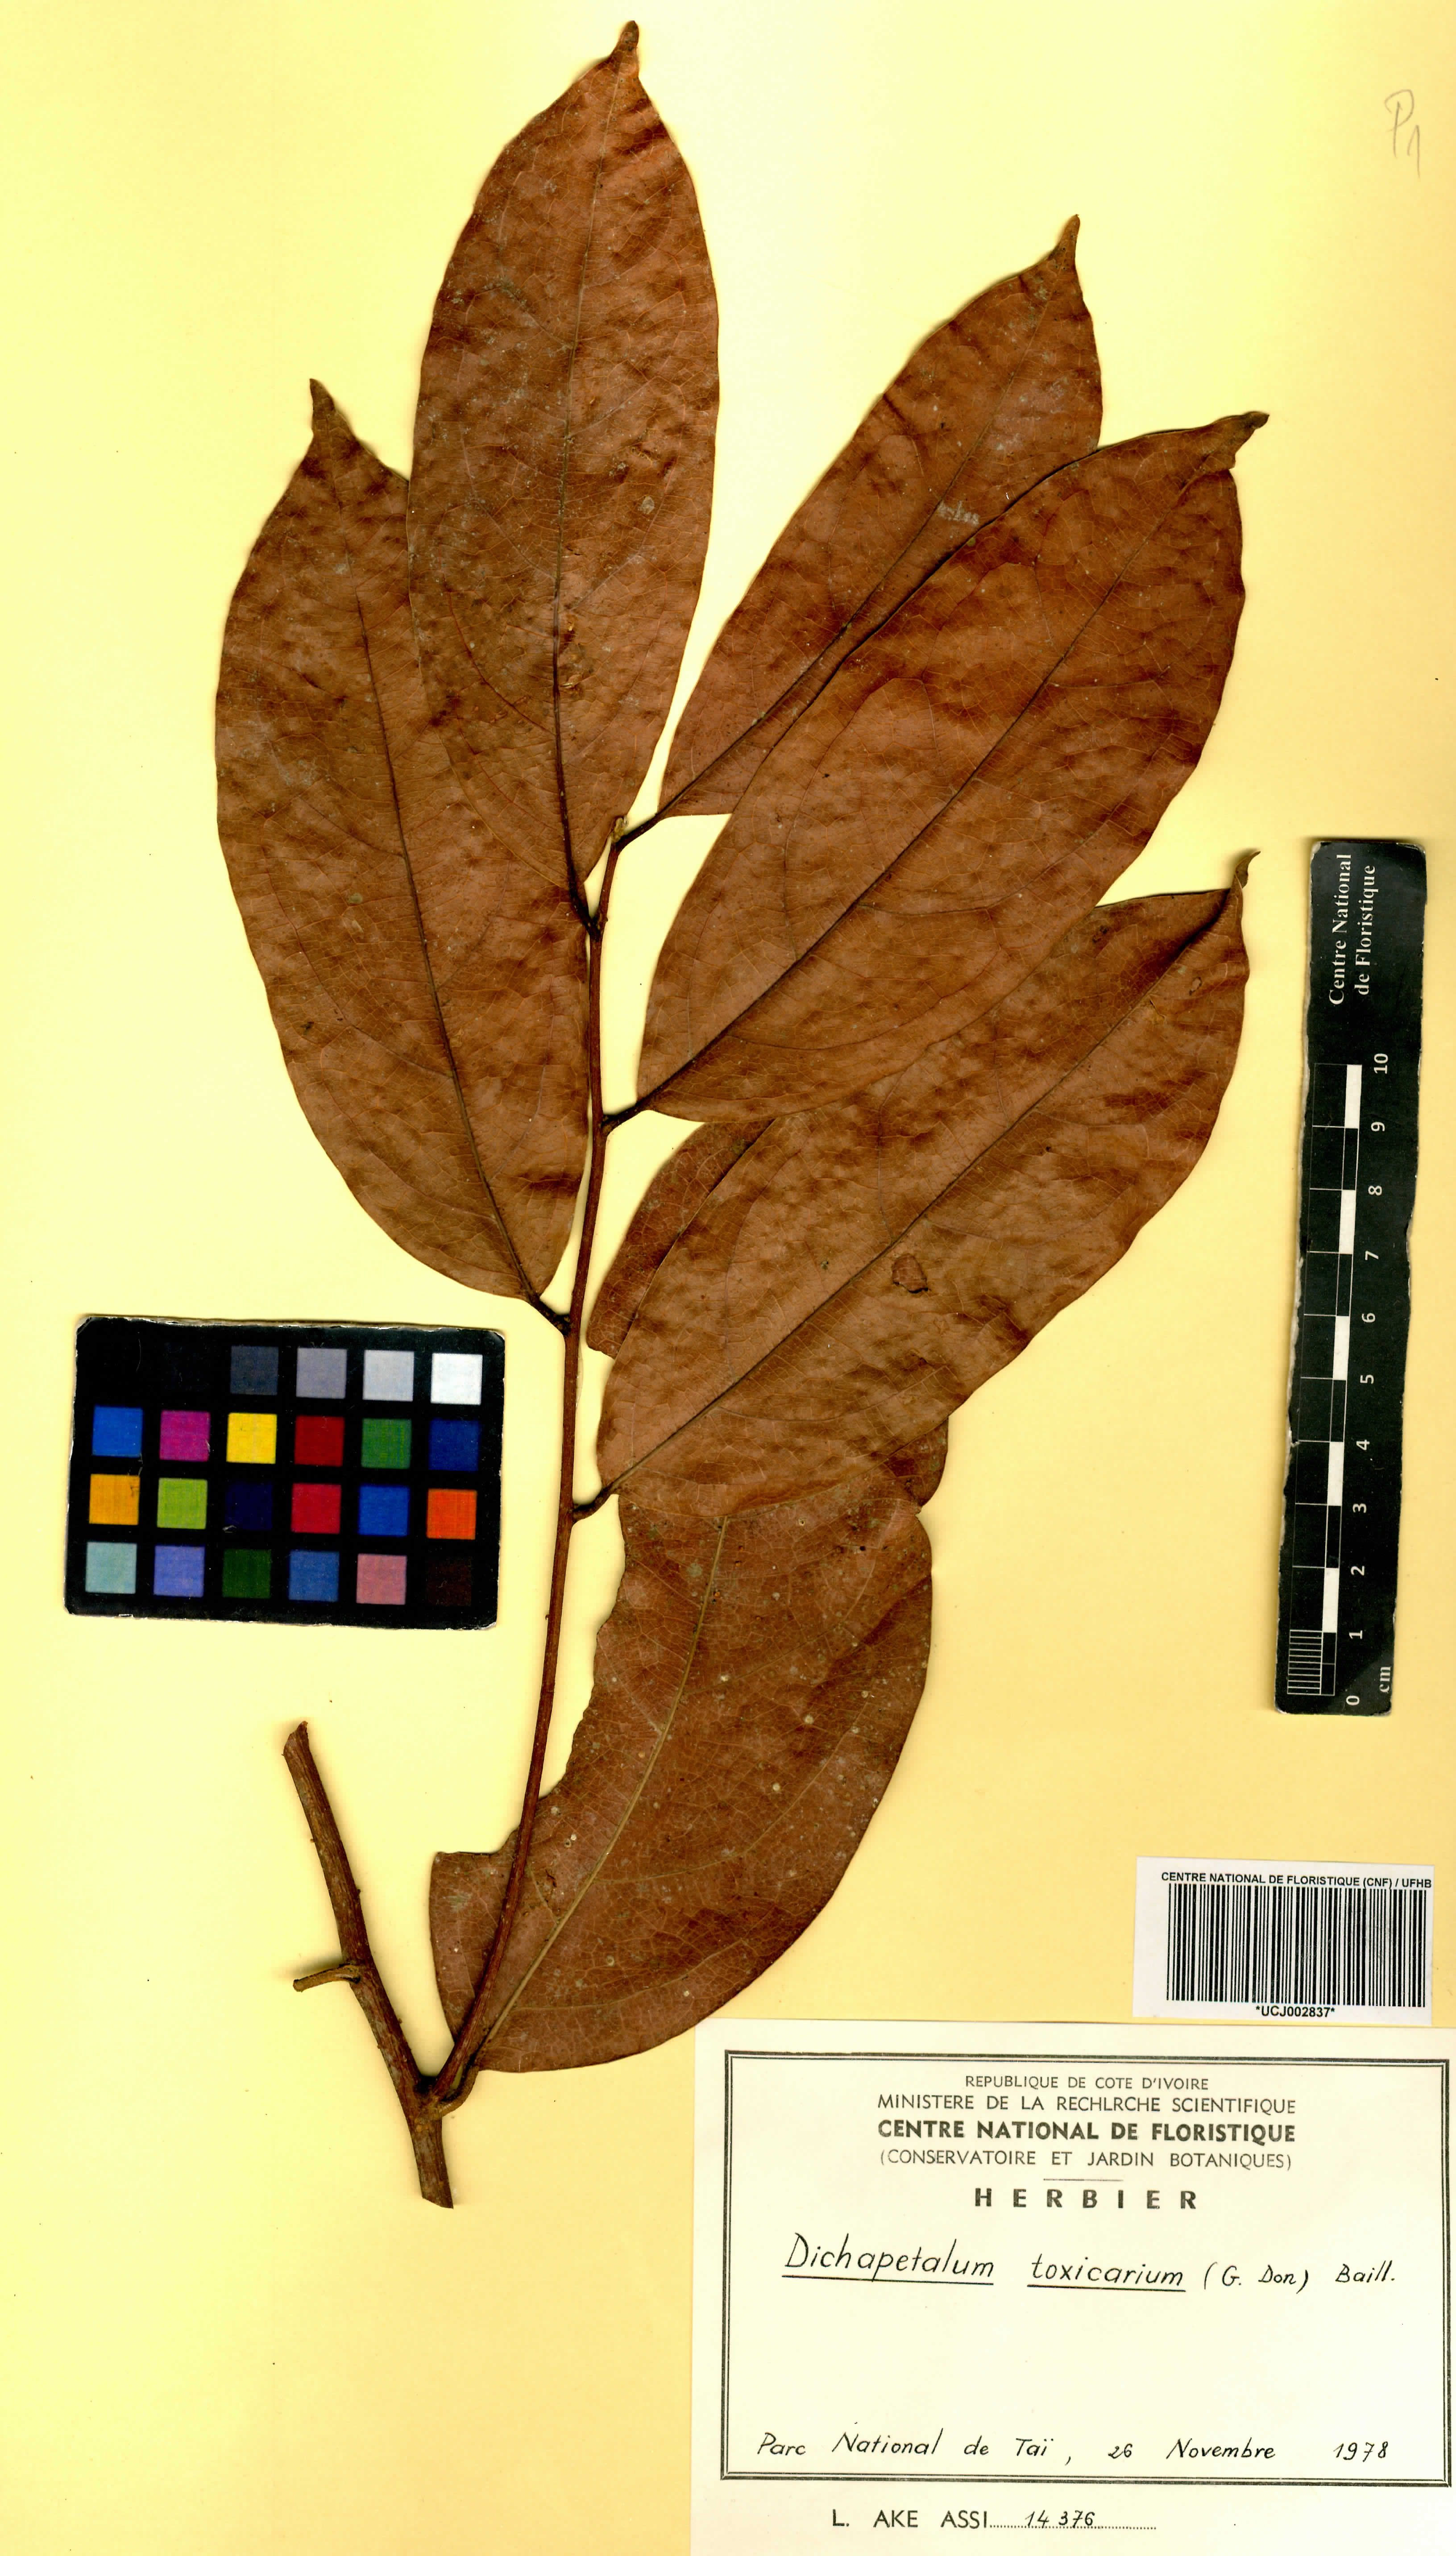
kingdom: Plantae
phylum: Tracheophyta
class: Magnoliopsida
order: Malpighiales
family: Dichapetalaceae
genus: Dichapetalum
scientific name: Dichapetalum toxicarium
